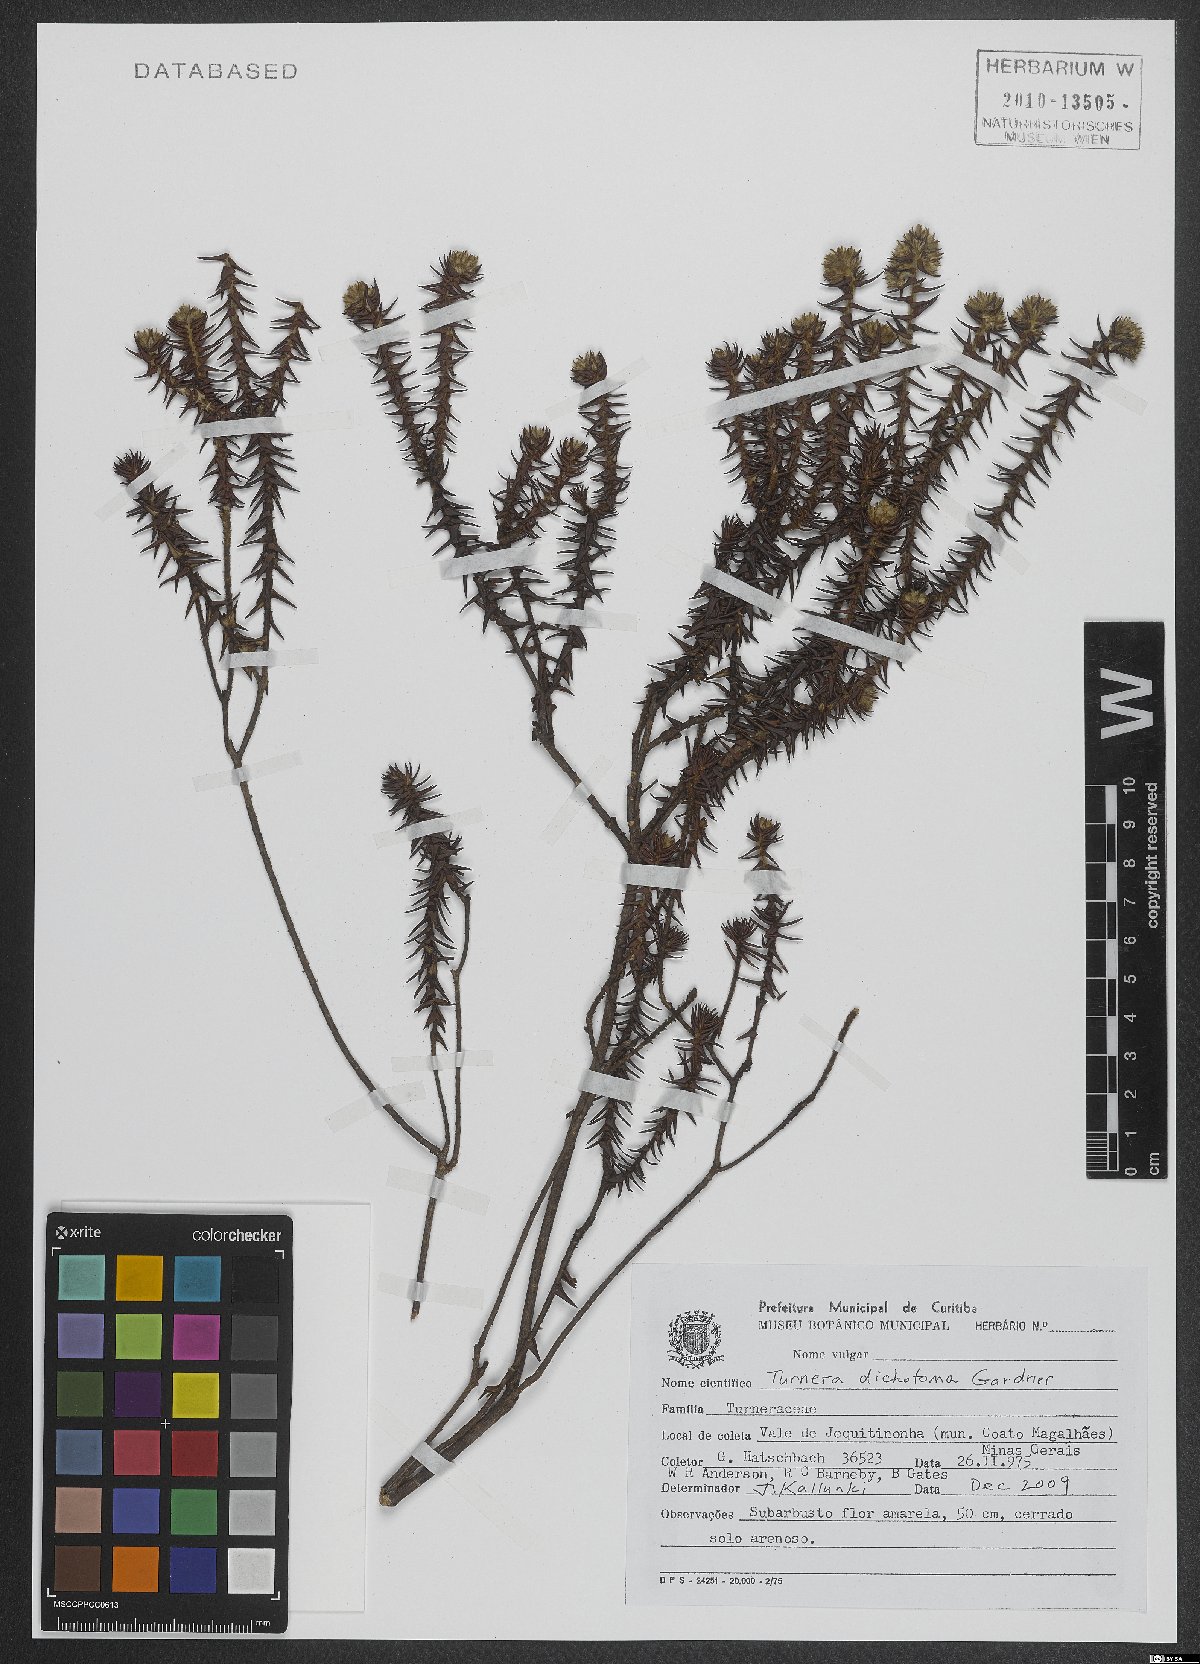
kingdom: Plantae
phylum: Tracheophyta
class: Magnoliopsida
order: Malpighiales
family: Turneraceae
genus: Turnera
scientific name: Turnera dichotoma
